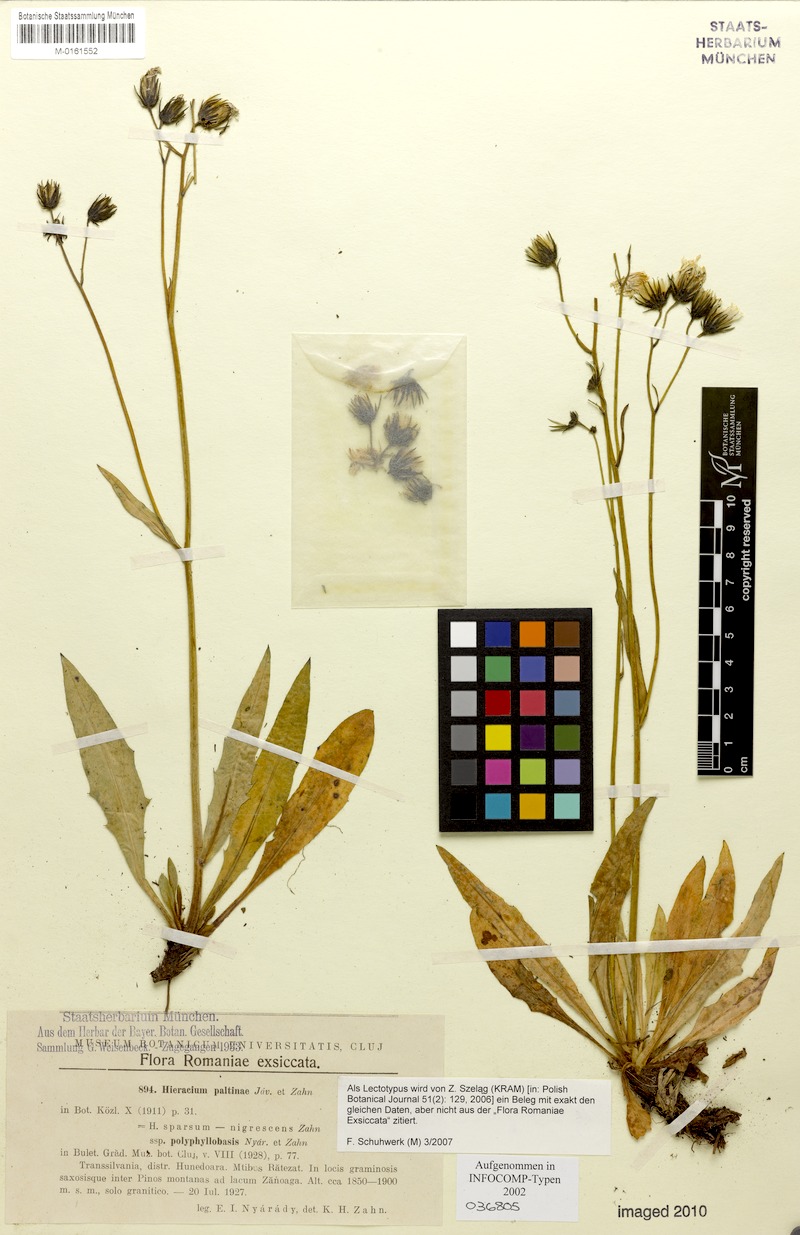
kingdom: Plantae
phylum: Tracheophyta
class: Magnoliopsida
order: Asterales
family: Asteraceae
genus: Hieracium
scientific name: Hieracium paltinae
